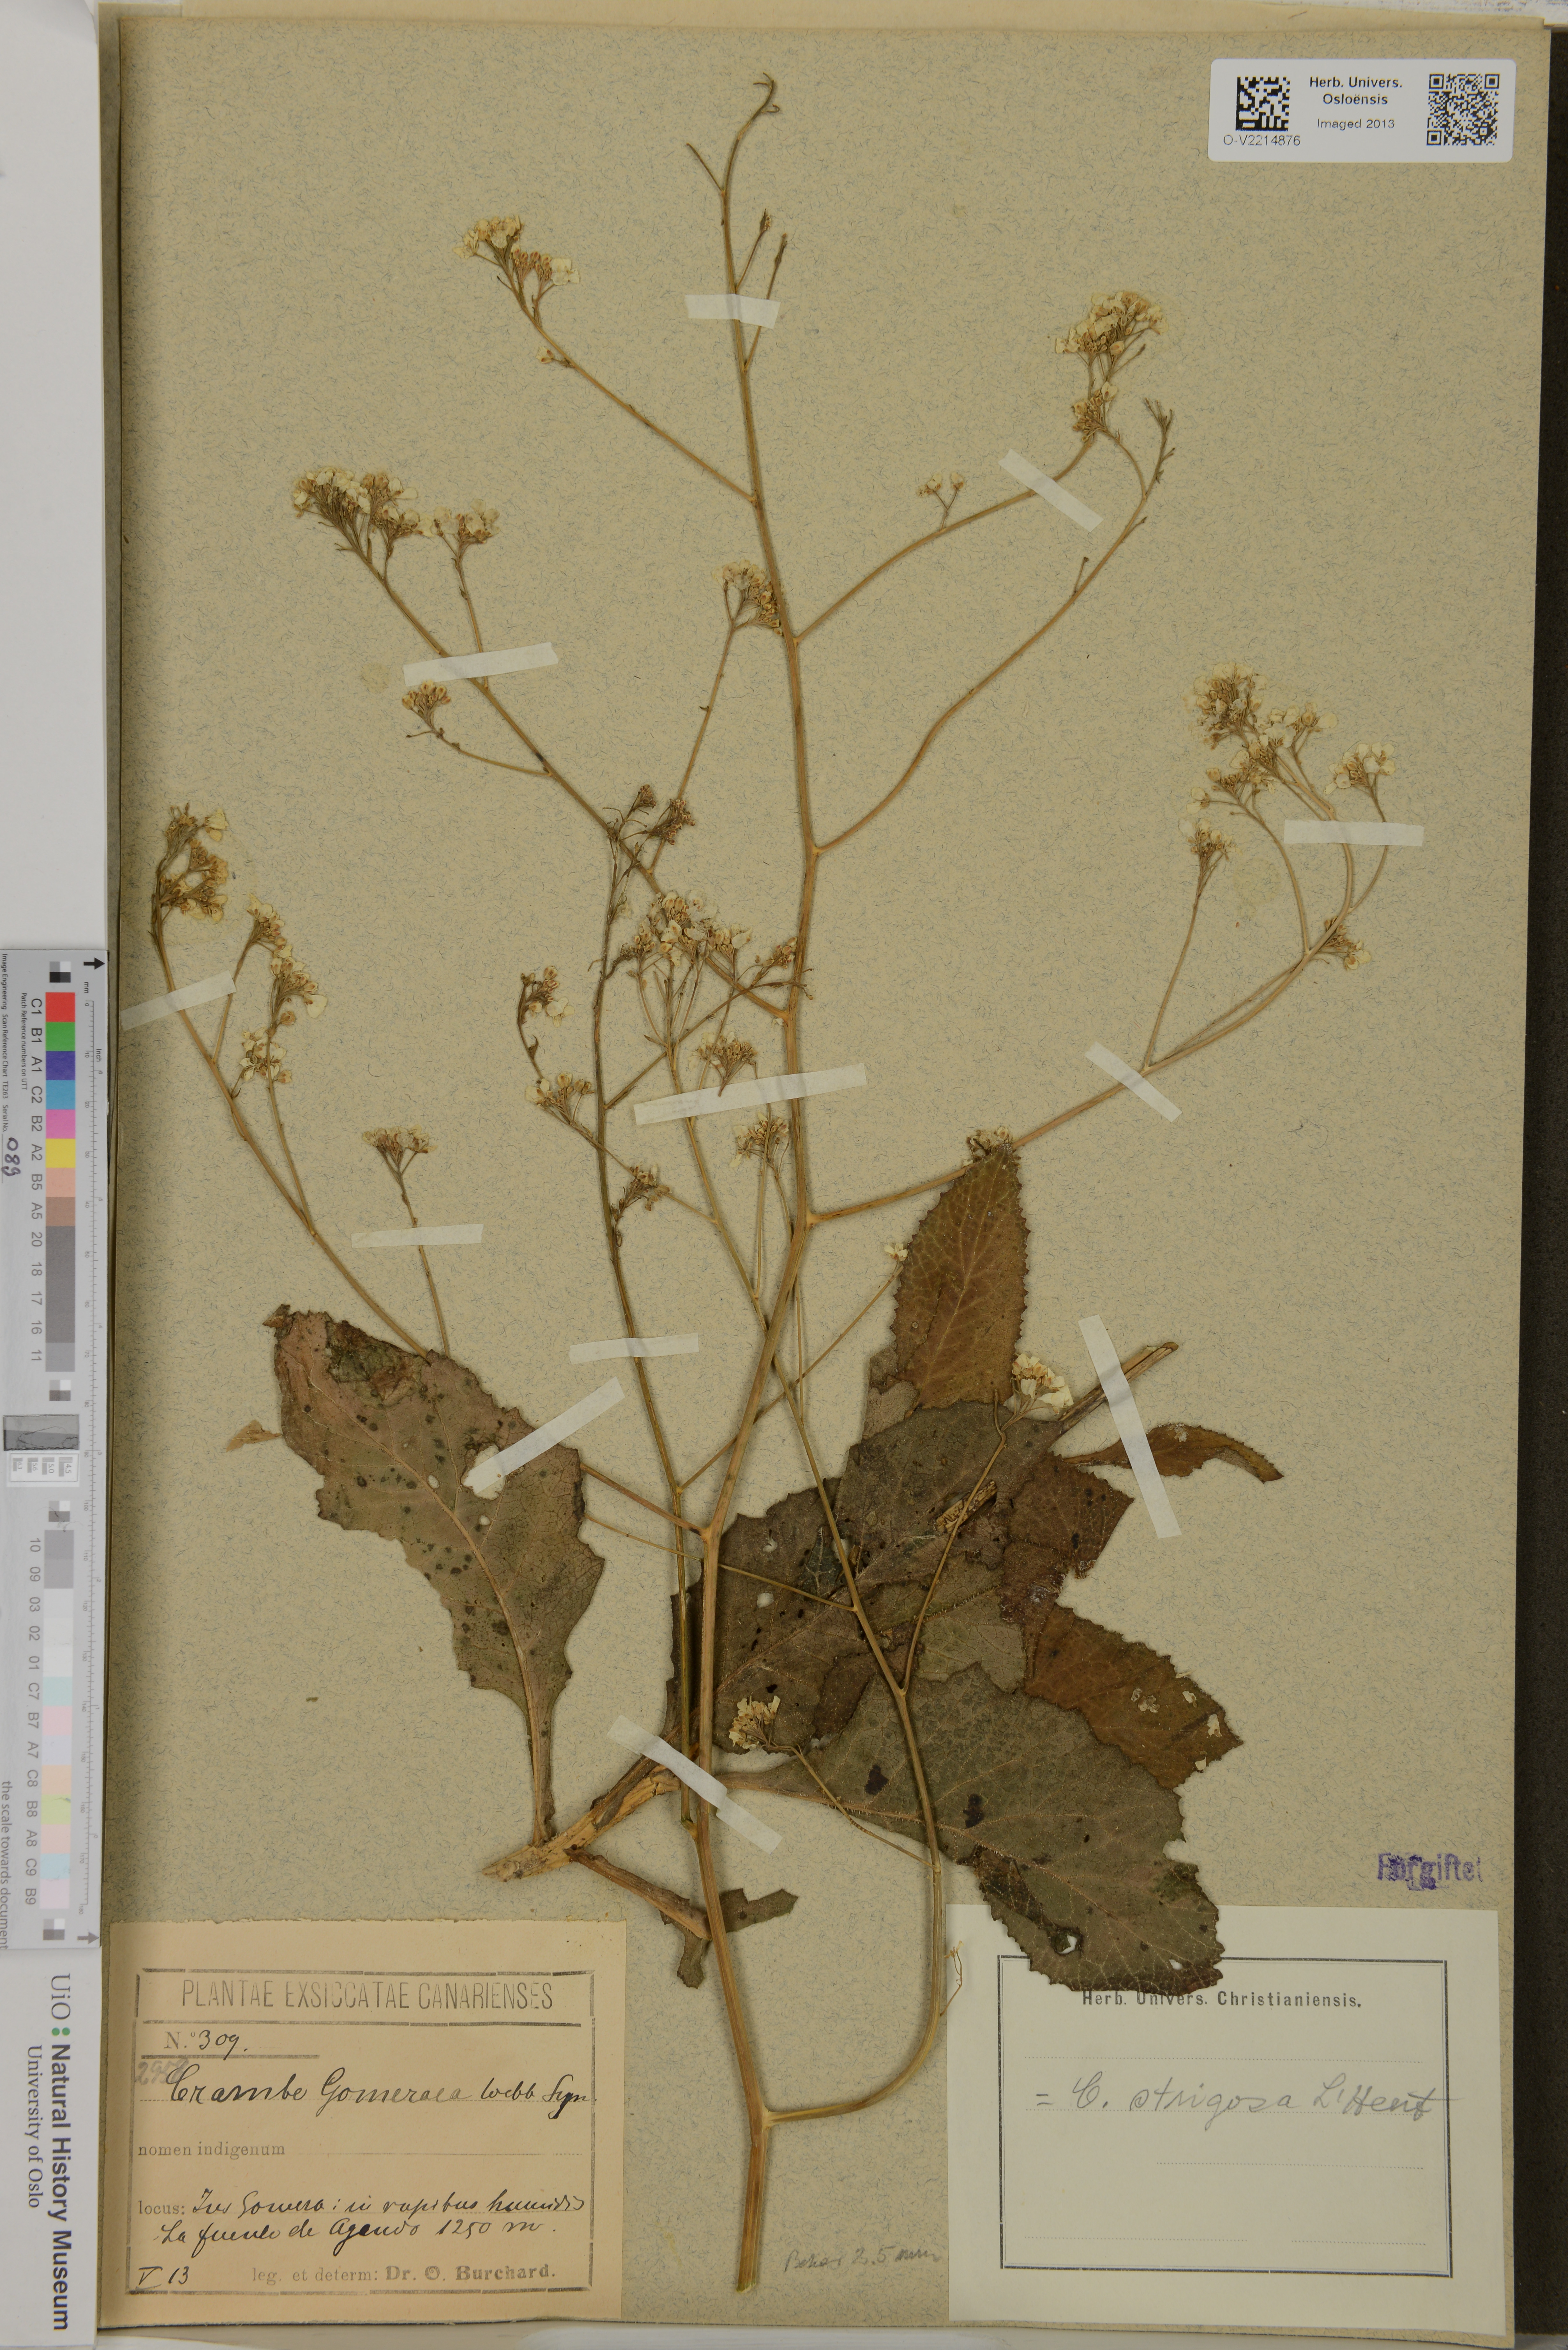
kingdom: Plantae
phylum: Tracheophyta
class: Magnoliopsida
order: Brassicales
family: Brassicaceae
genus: Crambe
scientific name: Crambe gomeraea
